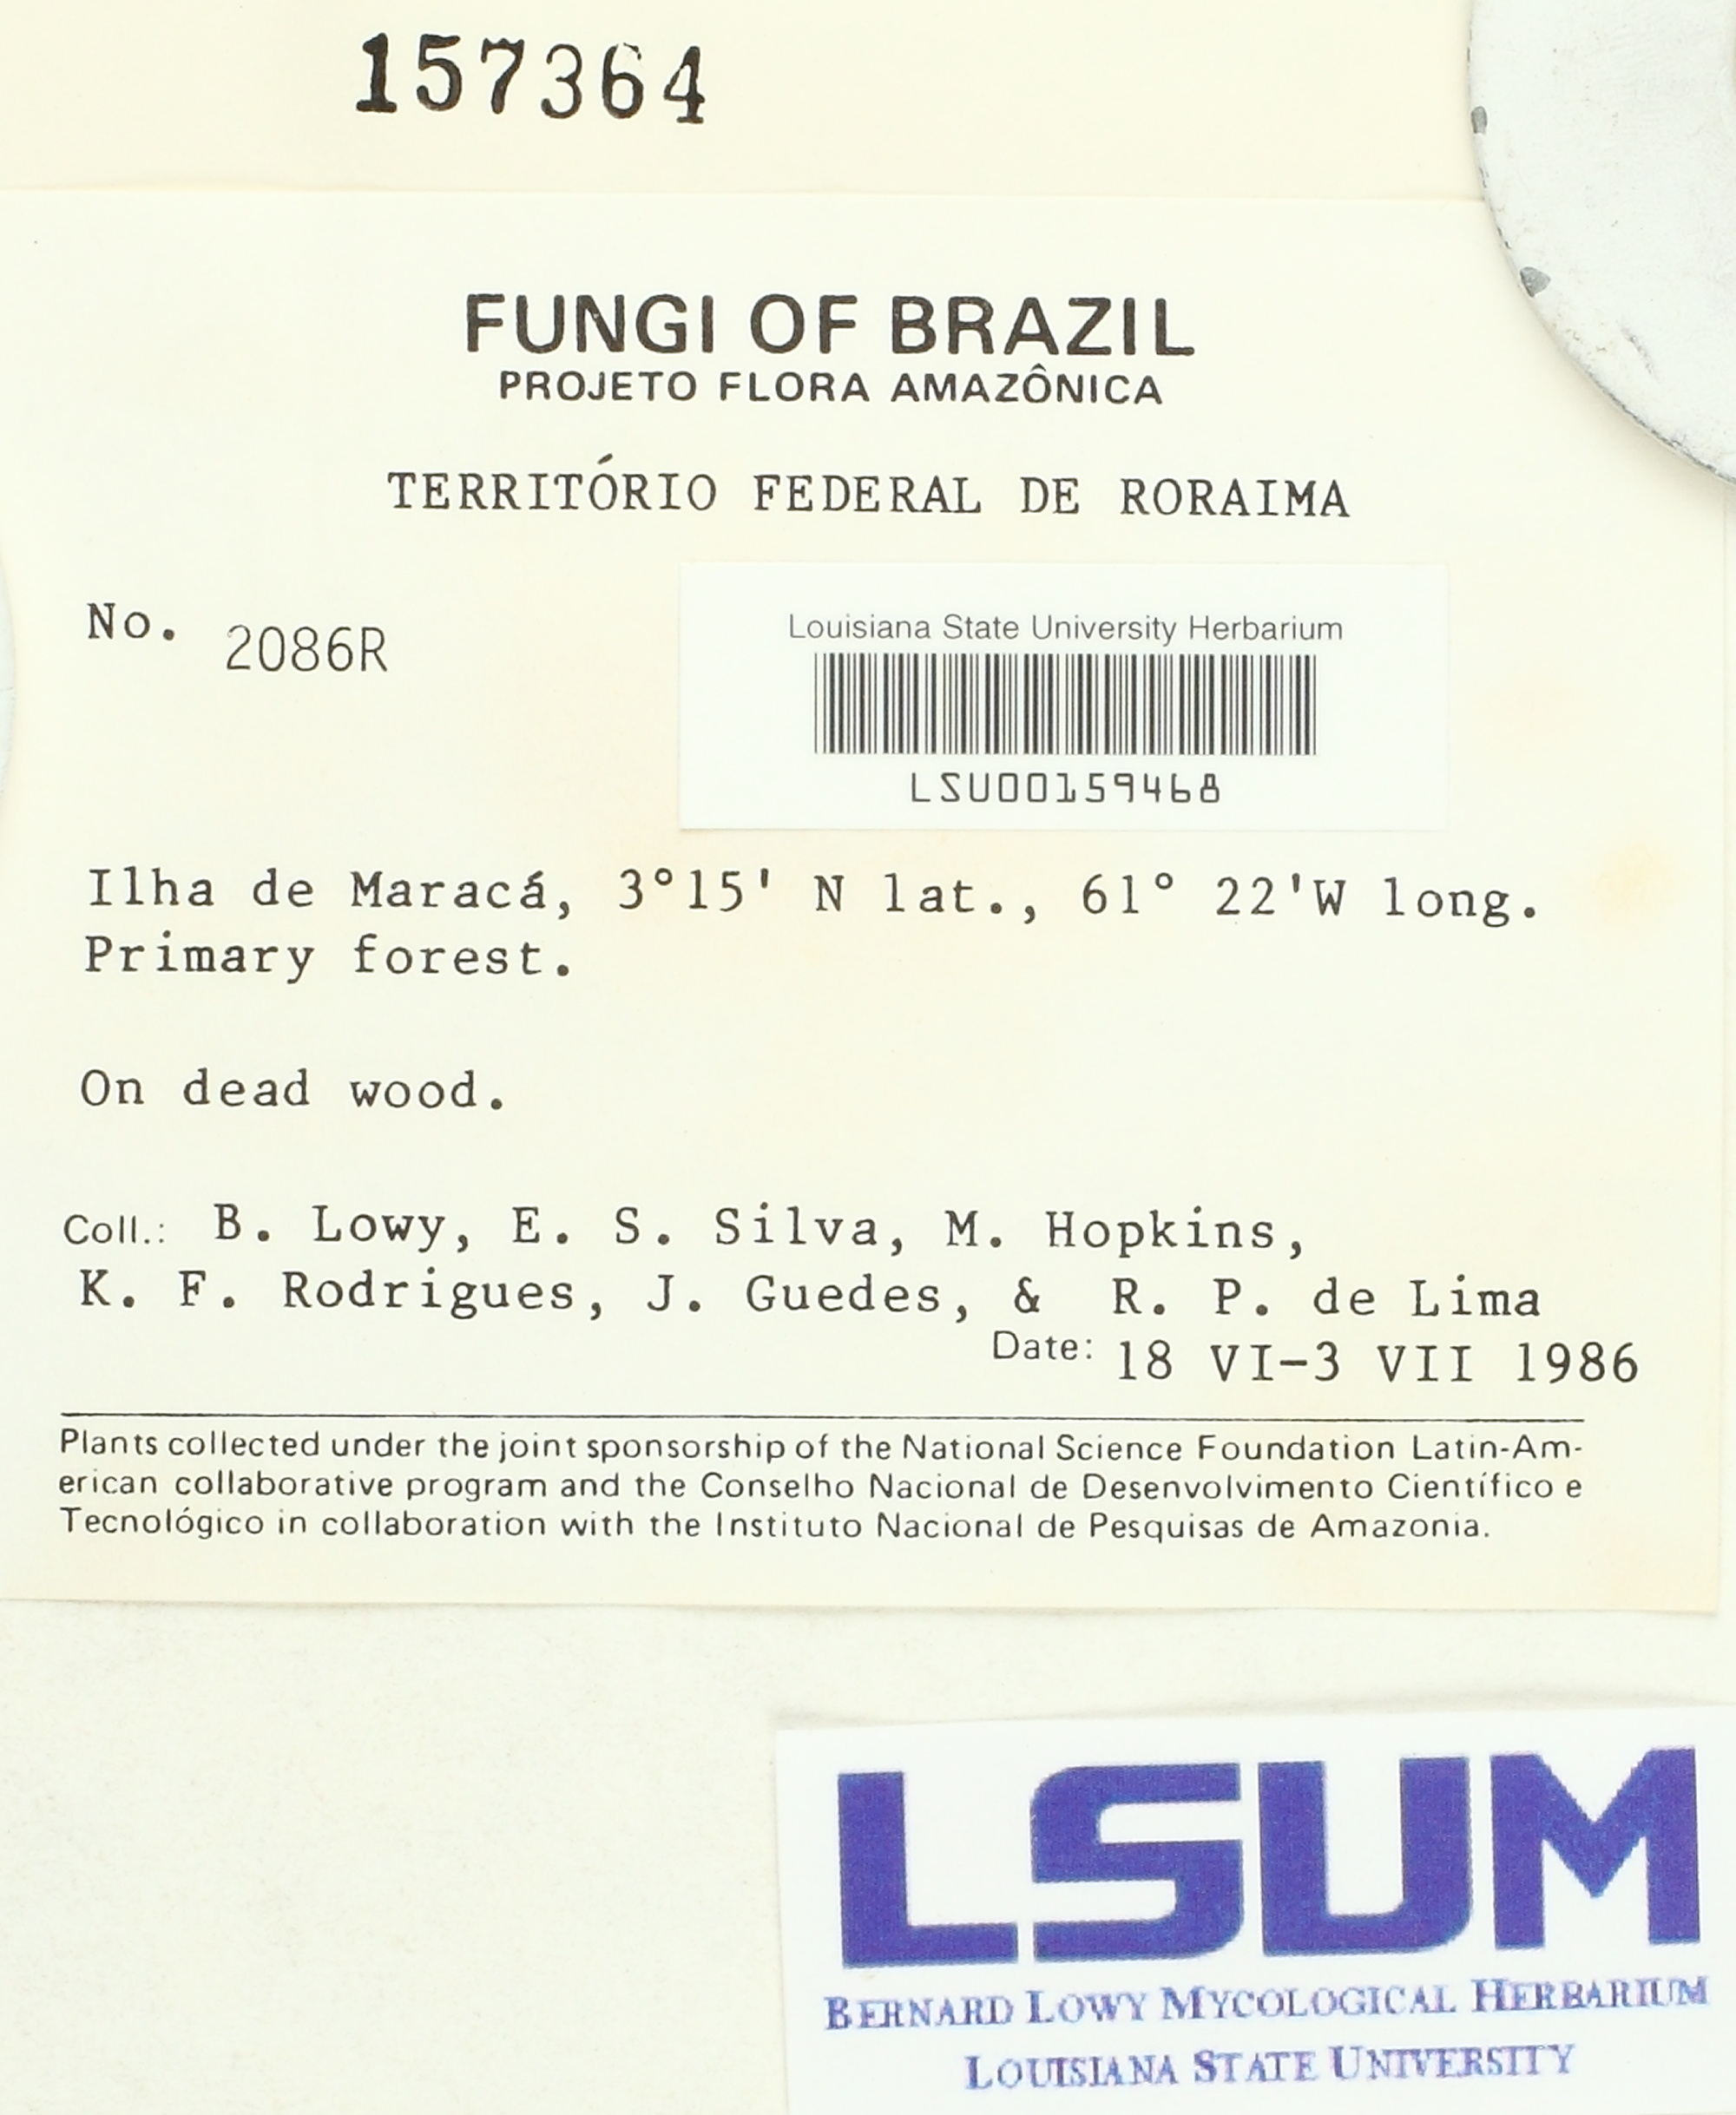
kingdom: Fungi
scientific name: Fungi
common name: Fungi
